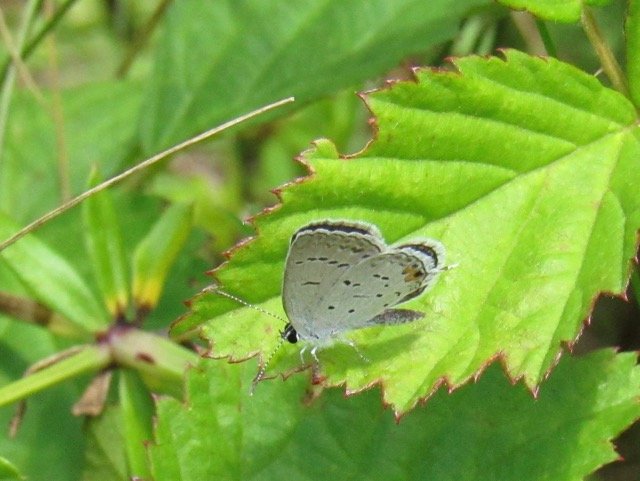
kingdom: Animalia
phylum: Arthropoda
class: Insecta
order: Lepidoptera
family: Lycaenidae
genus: Elkalyce
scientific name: Elkalyce comyntas
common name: Eastern Tailed-Blue
